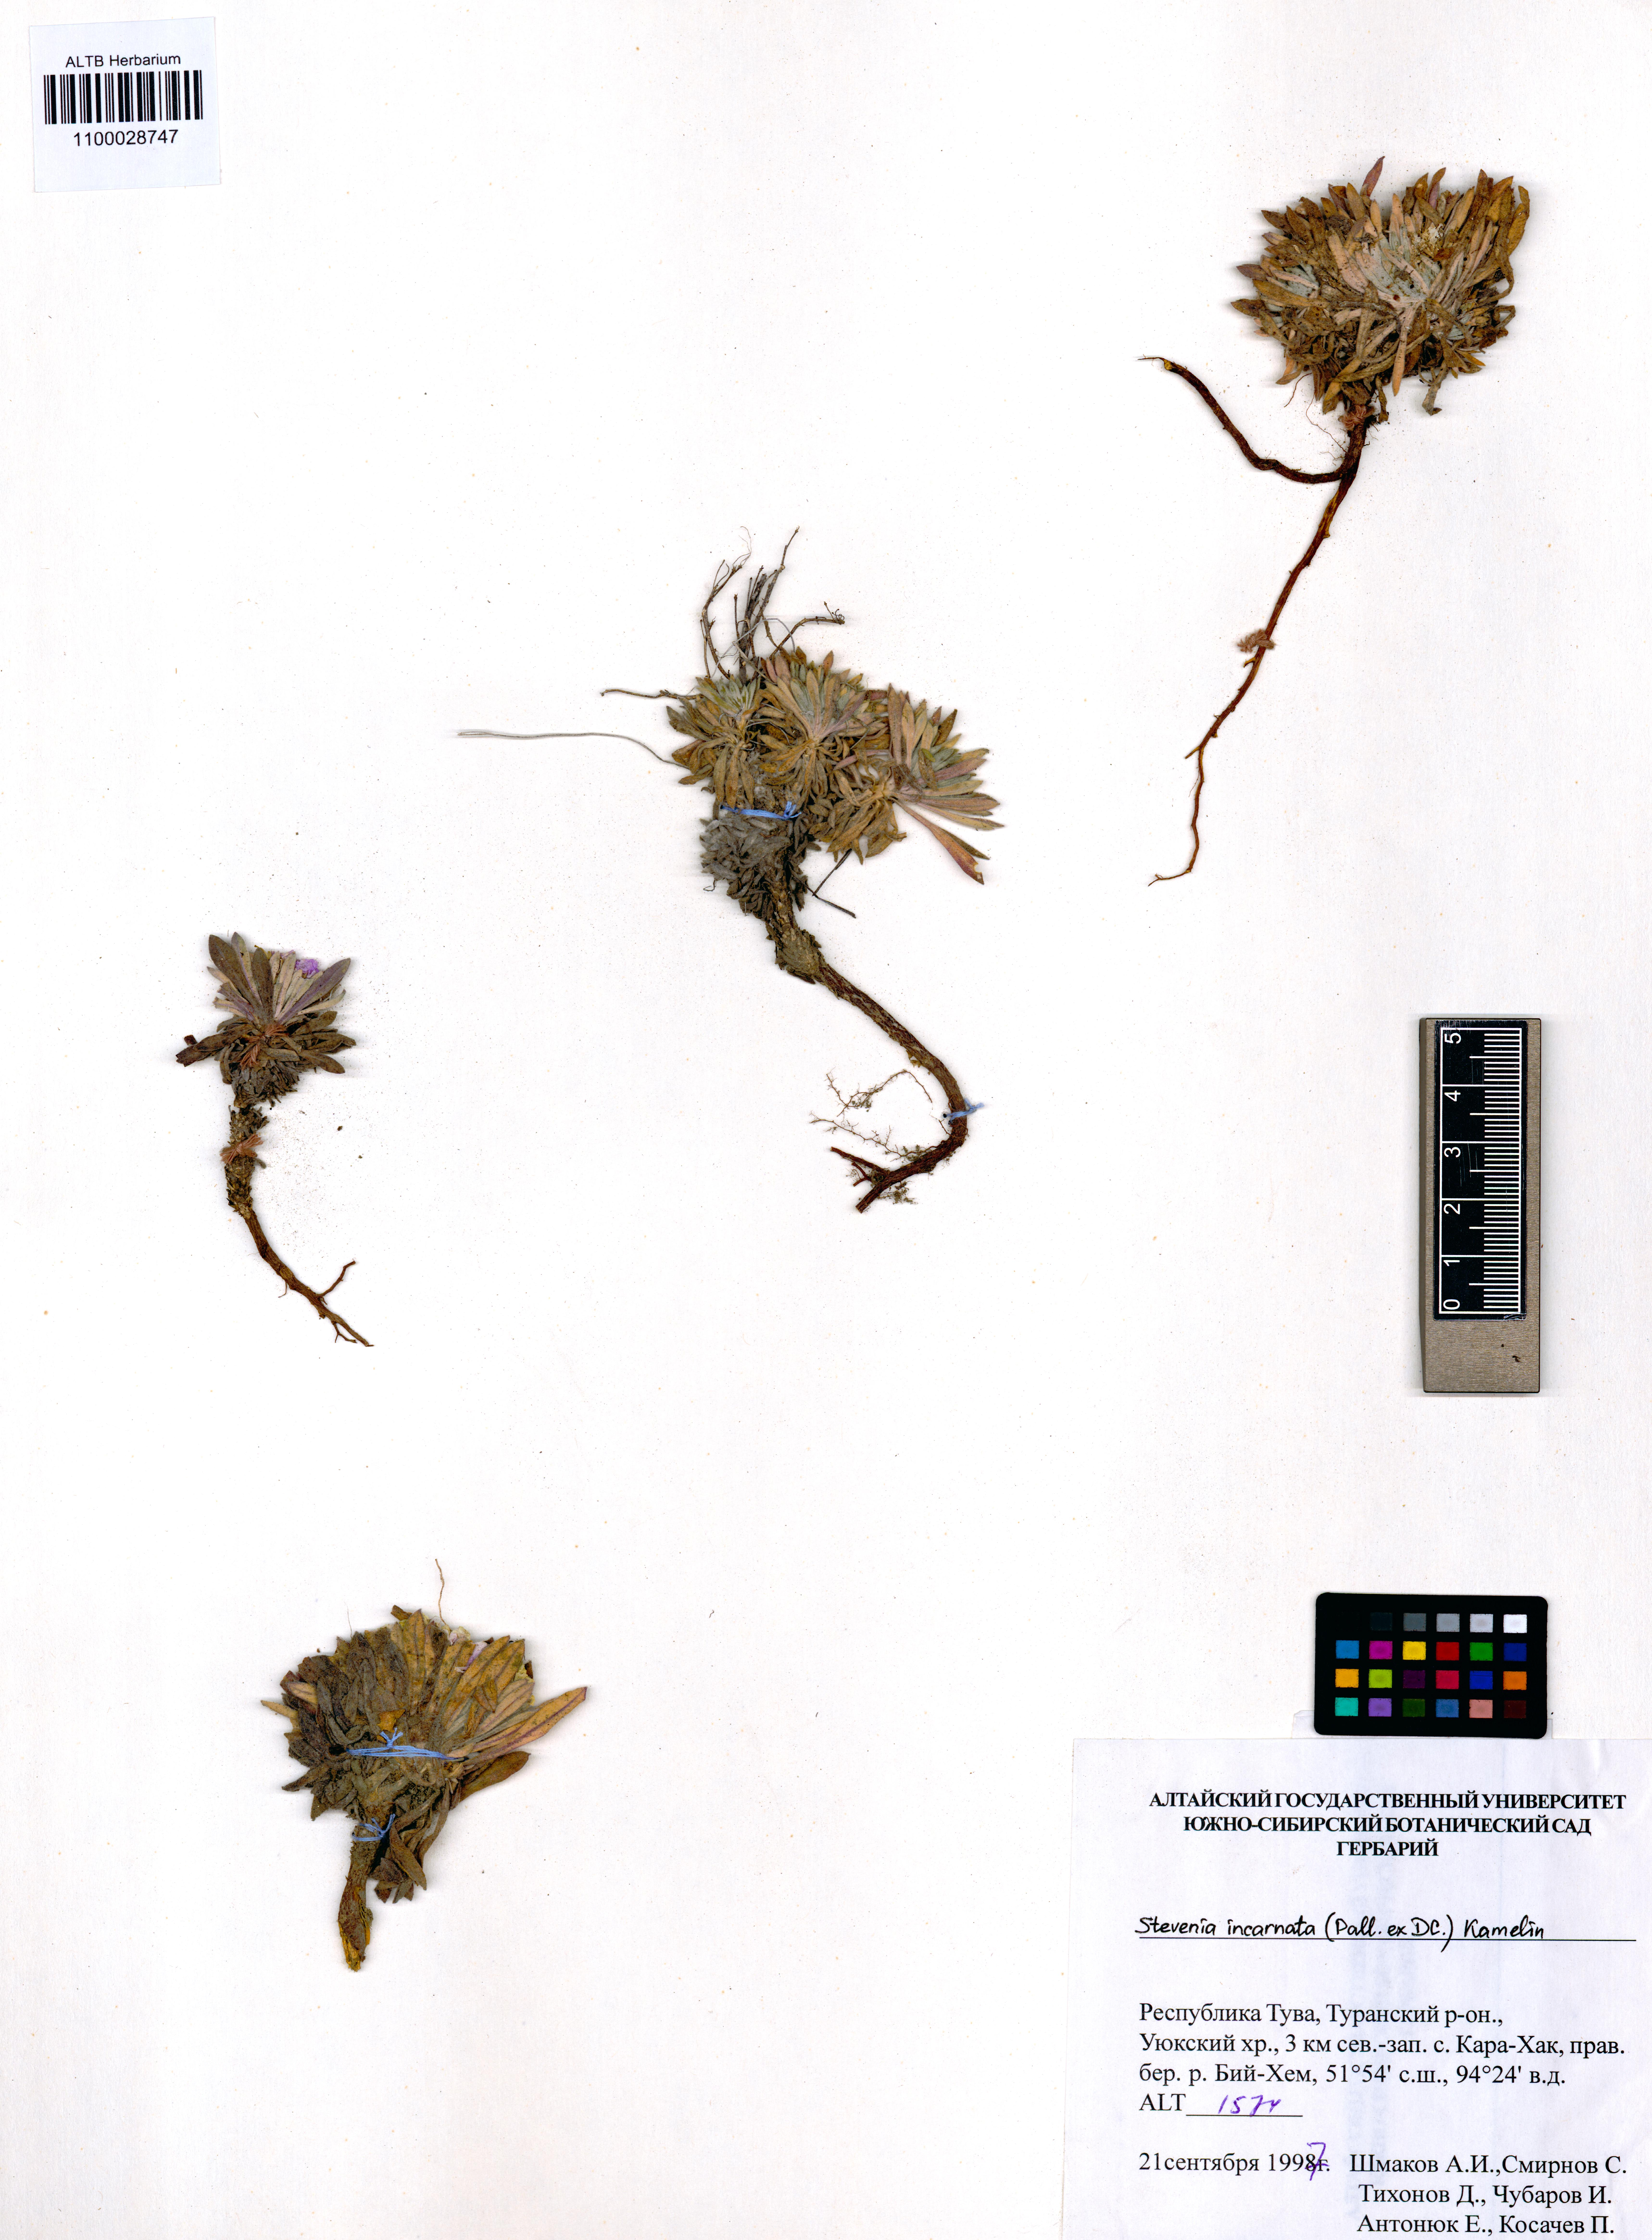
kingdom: Plantae
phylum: Tracheophyta
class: Magnoliopsida
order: Brassicales
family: Brassicaceae
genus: Stevenia
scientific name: Stevenia incarnata
